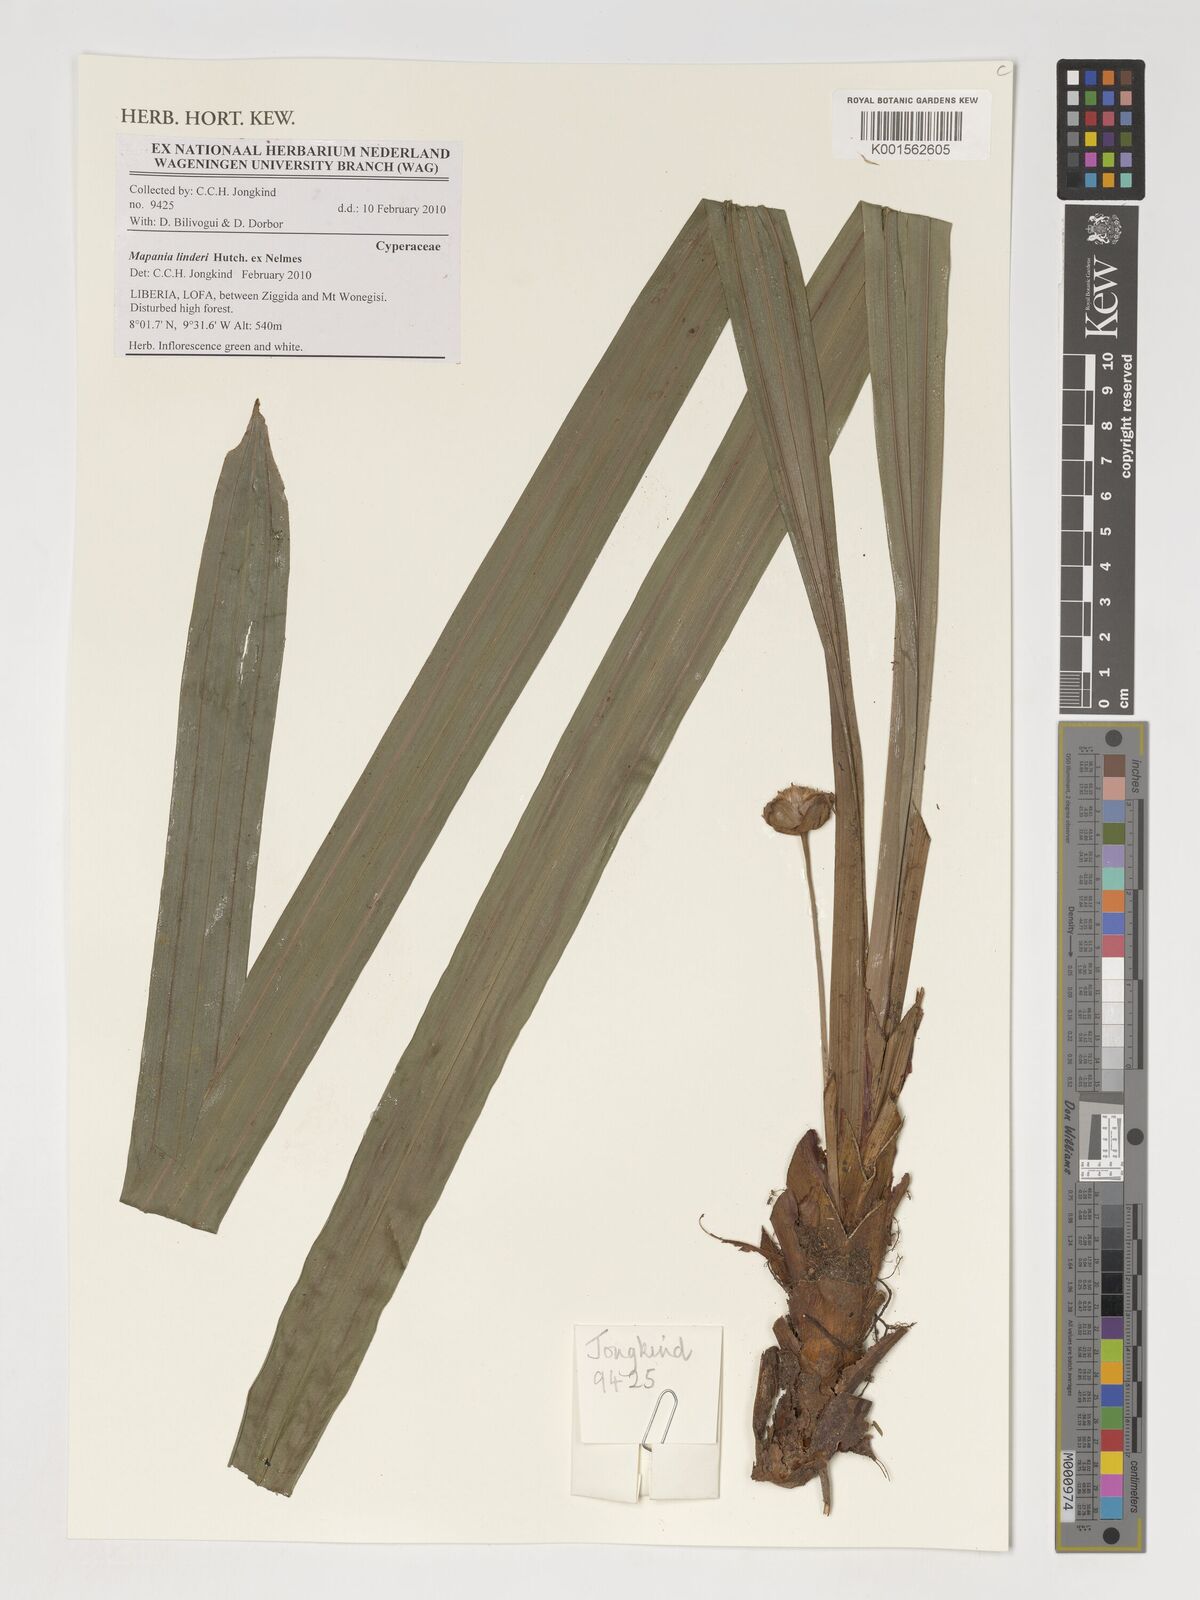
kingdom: Plantae
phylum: Tracheophyta
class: Liliopsida
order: Poales
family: Cyperaceae
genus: Mapania
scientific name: Mapania linderi
